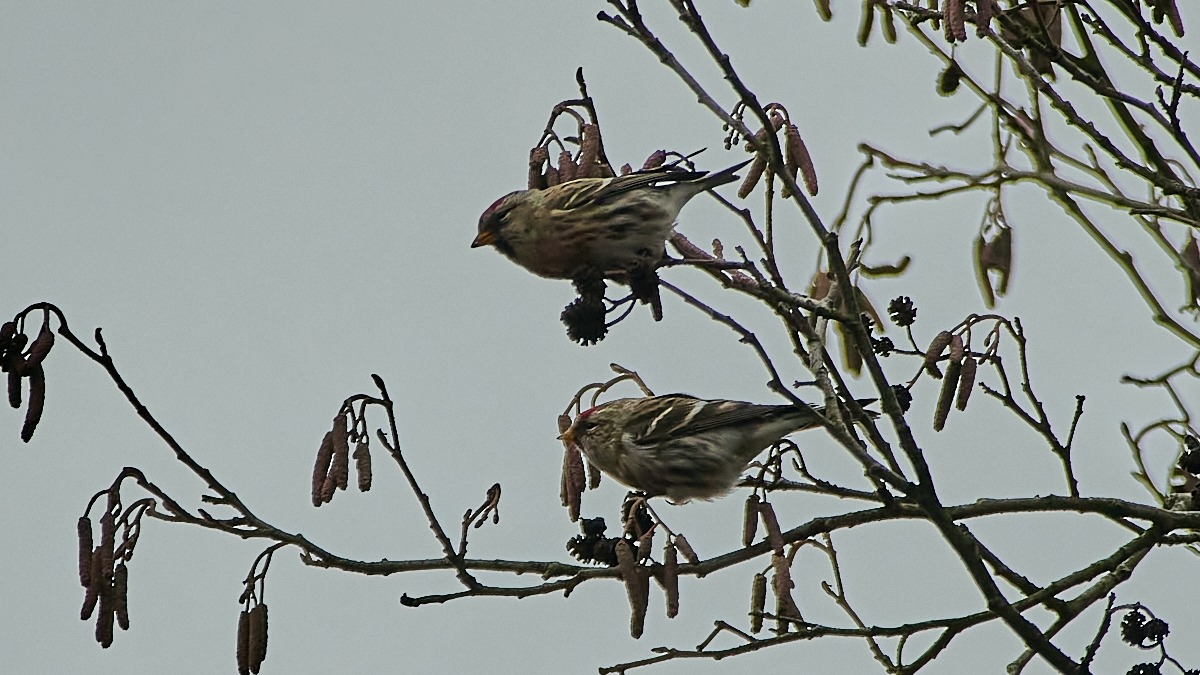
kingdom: Animalia
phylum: Chordata
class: Aves
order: Passeriformes
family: Fringillidae
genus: Acanthis
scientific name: Acanthis flammea
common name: Nordlig gråsisken
